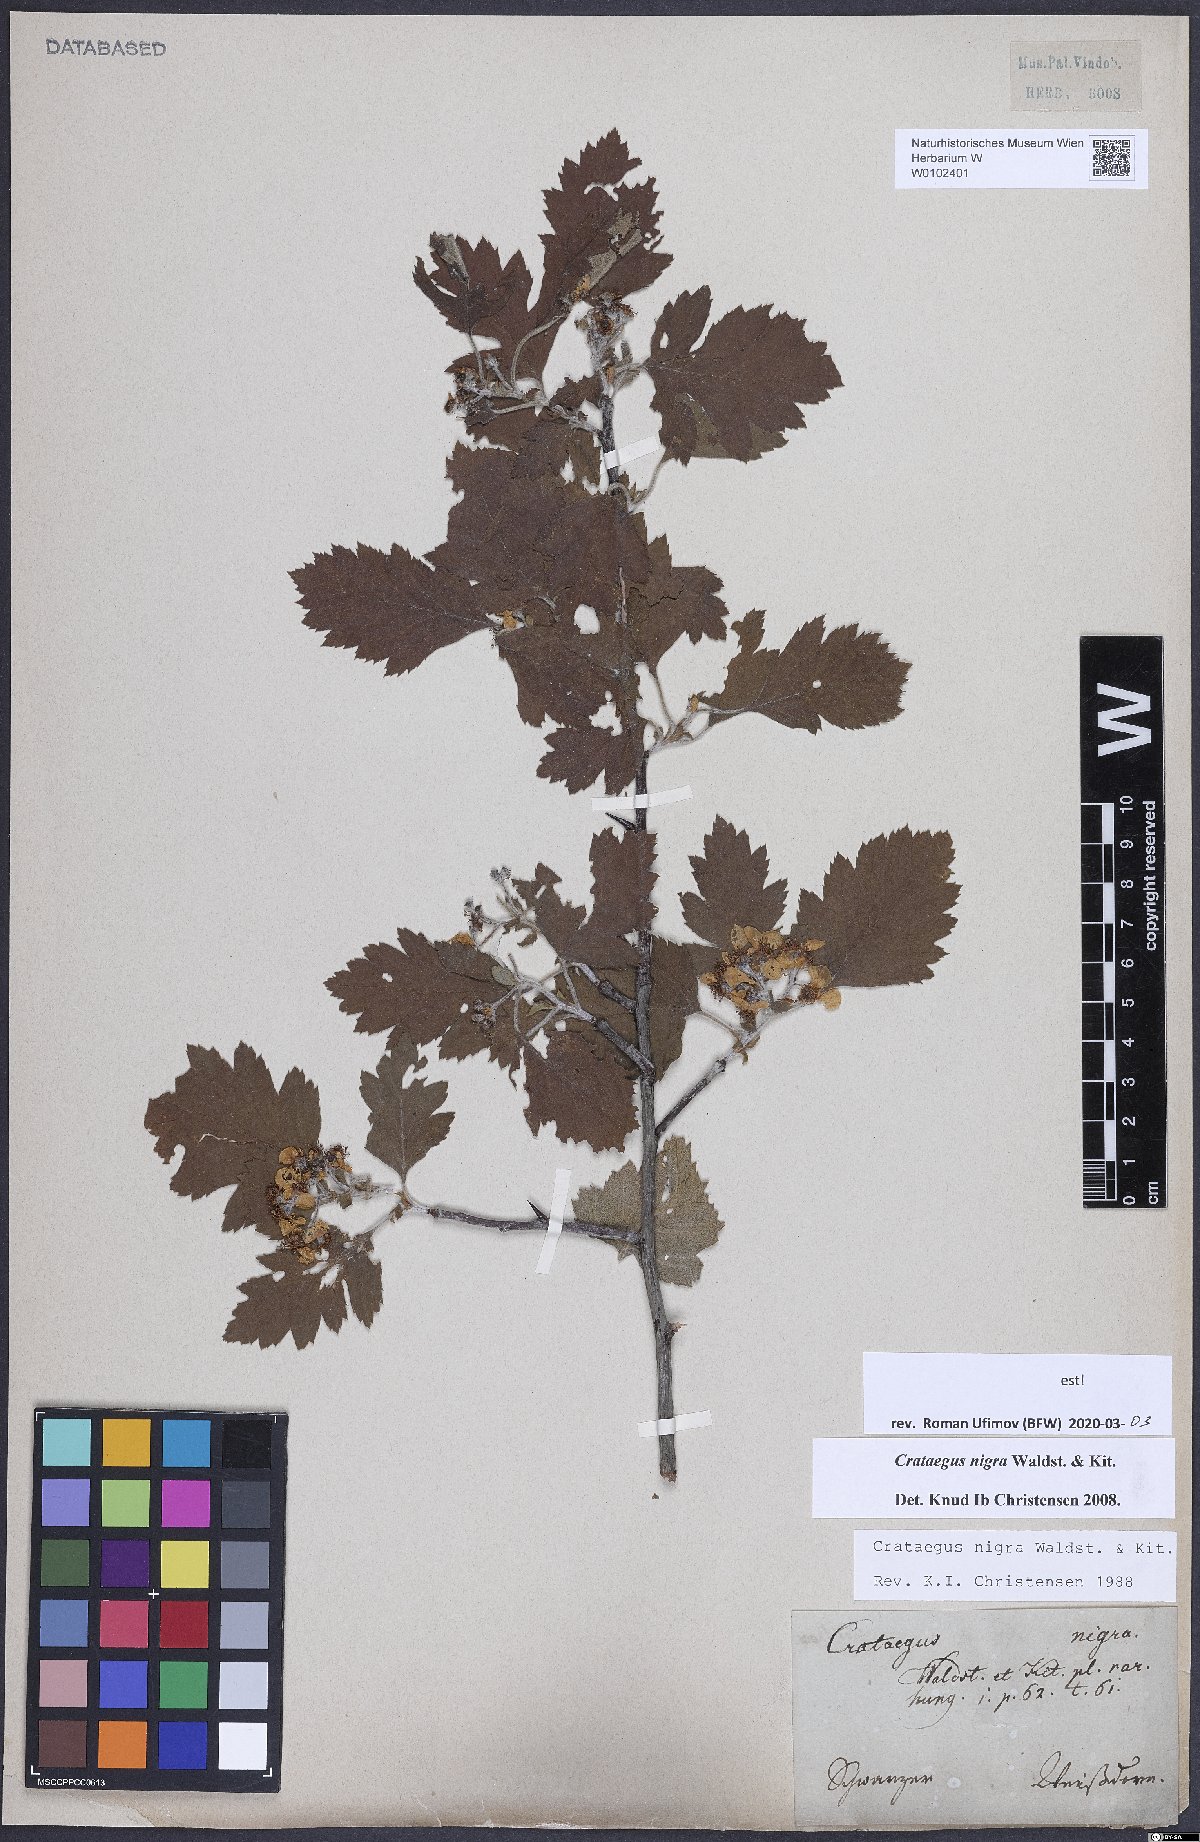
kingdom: Plantae
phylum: Tracheophyta
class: Magnoliopsida
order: Rosales
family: Rosaceae
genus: Crataegus
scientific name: Crataegus nigra
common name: Hungarian thorn
